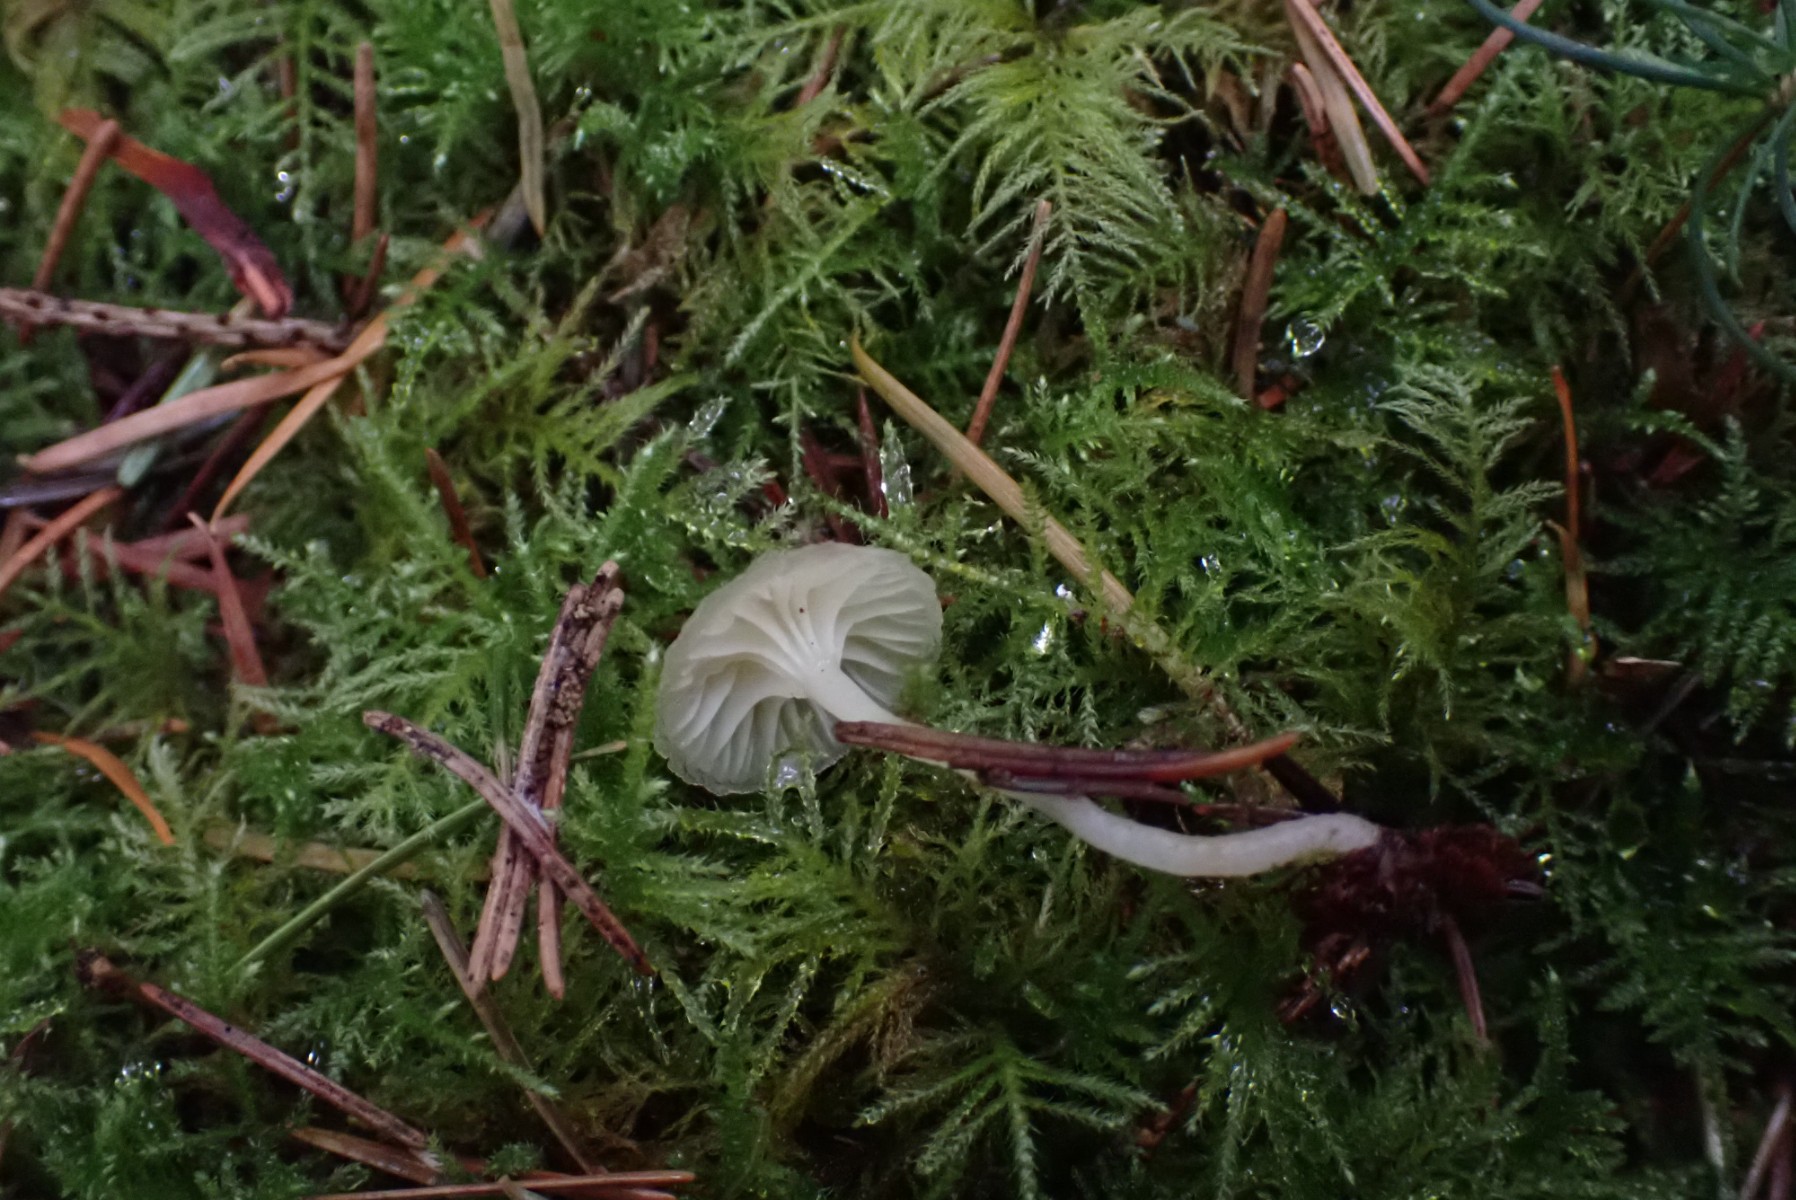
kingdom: Fungi
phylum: Basidiomycota
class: Agaricomycetes
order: Agaricales
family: Hygrophoraceae
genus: Chrysomphalina
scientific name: Chrysomphalina grossula
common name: stød-gyldenblad
